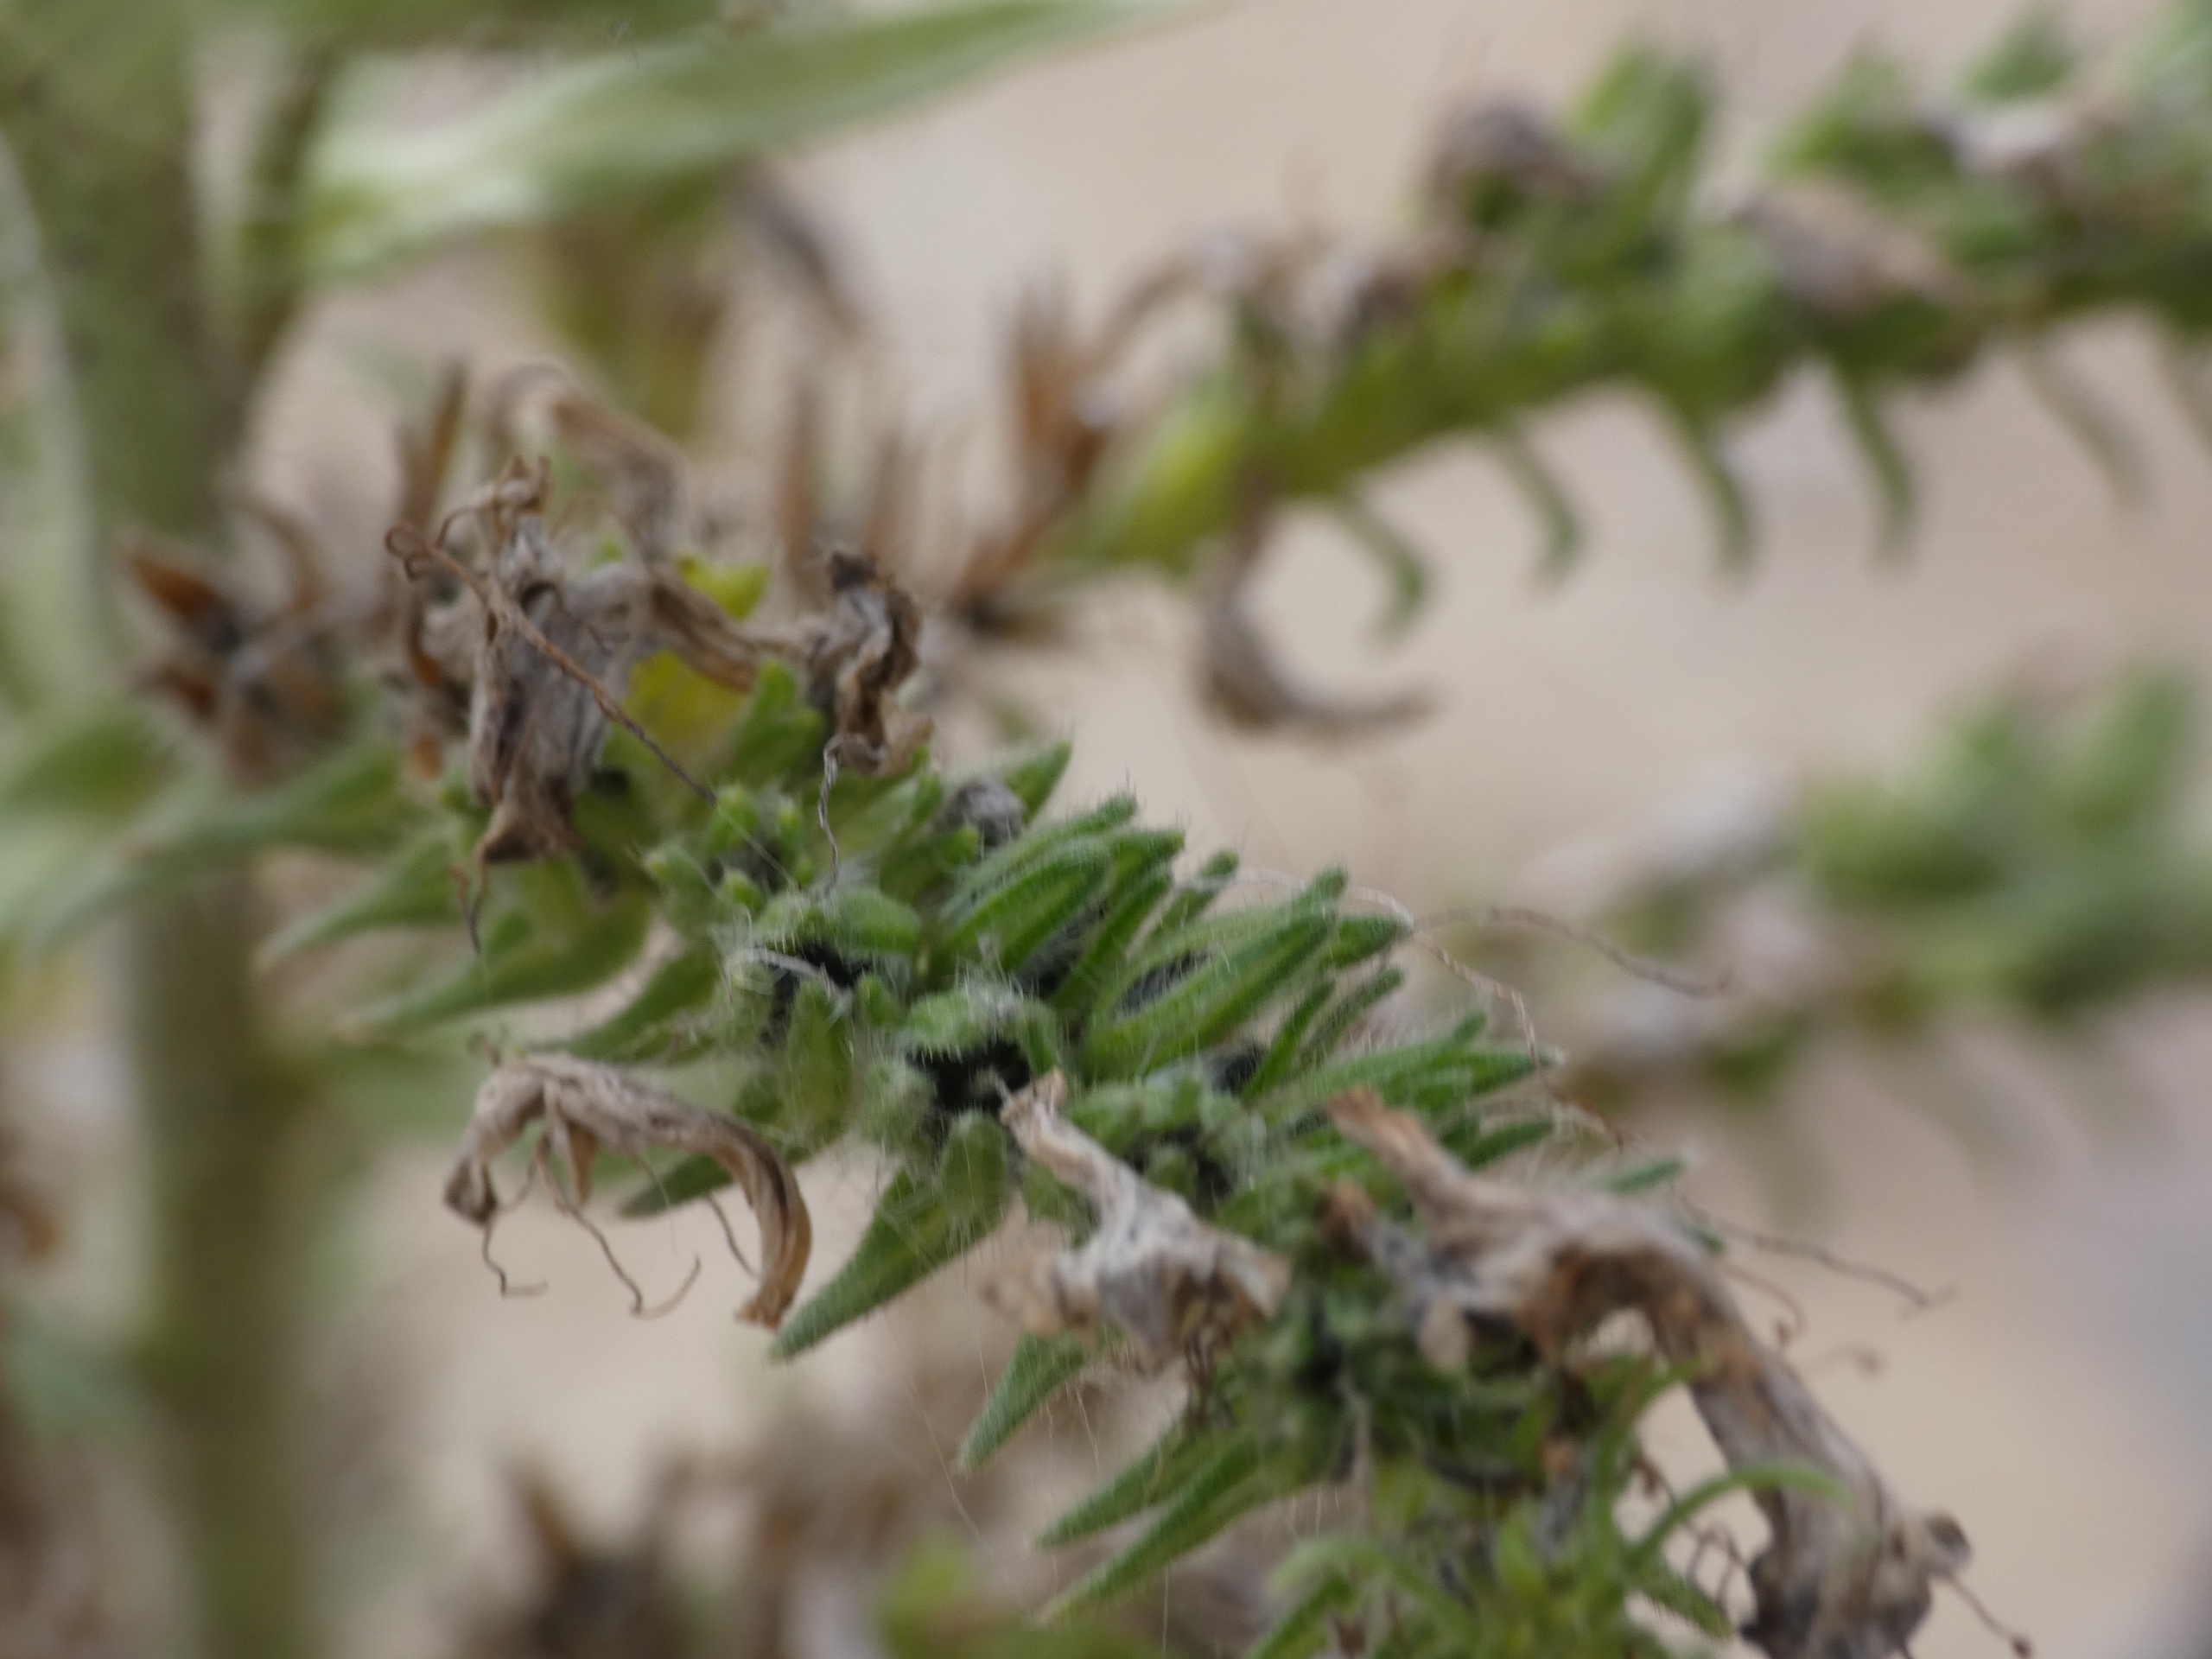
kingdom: Plantae
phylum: Tracheophyta
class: Magnoliopsida
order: Boraginales
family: Boraginaceae
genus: Echium
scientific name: Echium vulgare
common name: Slangehoved
